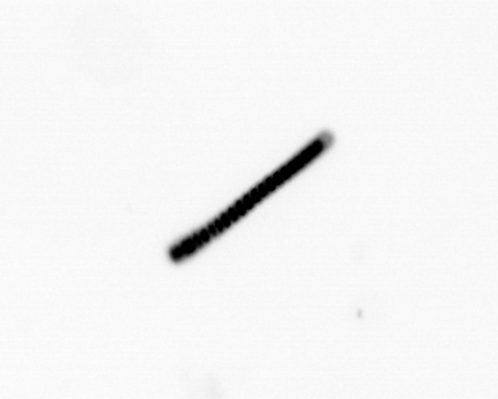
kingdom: Chromista
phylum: Ochrophyta
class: Bacillariophyceae
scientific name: Bacillariophyceae
